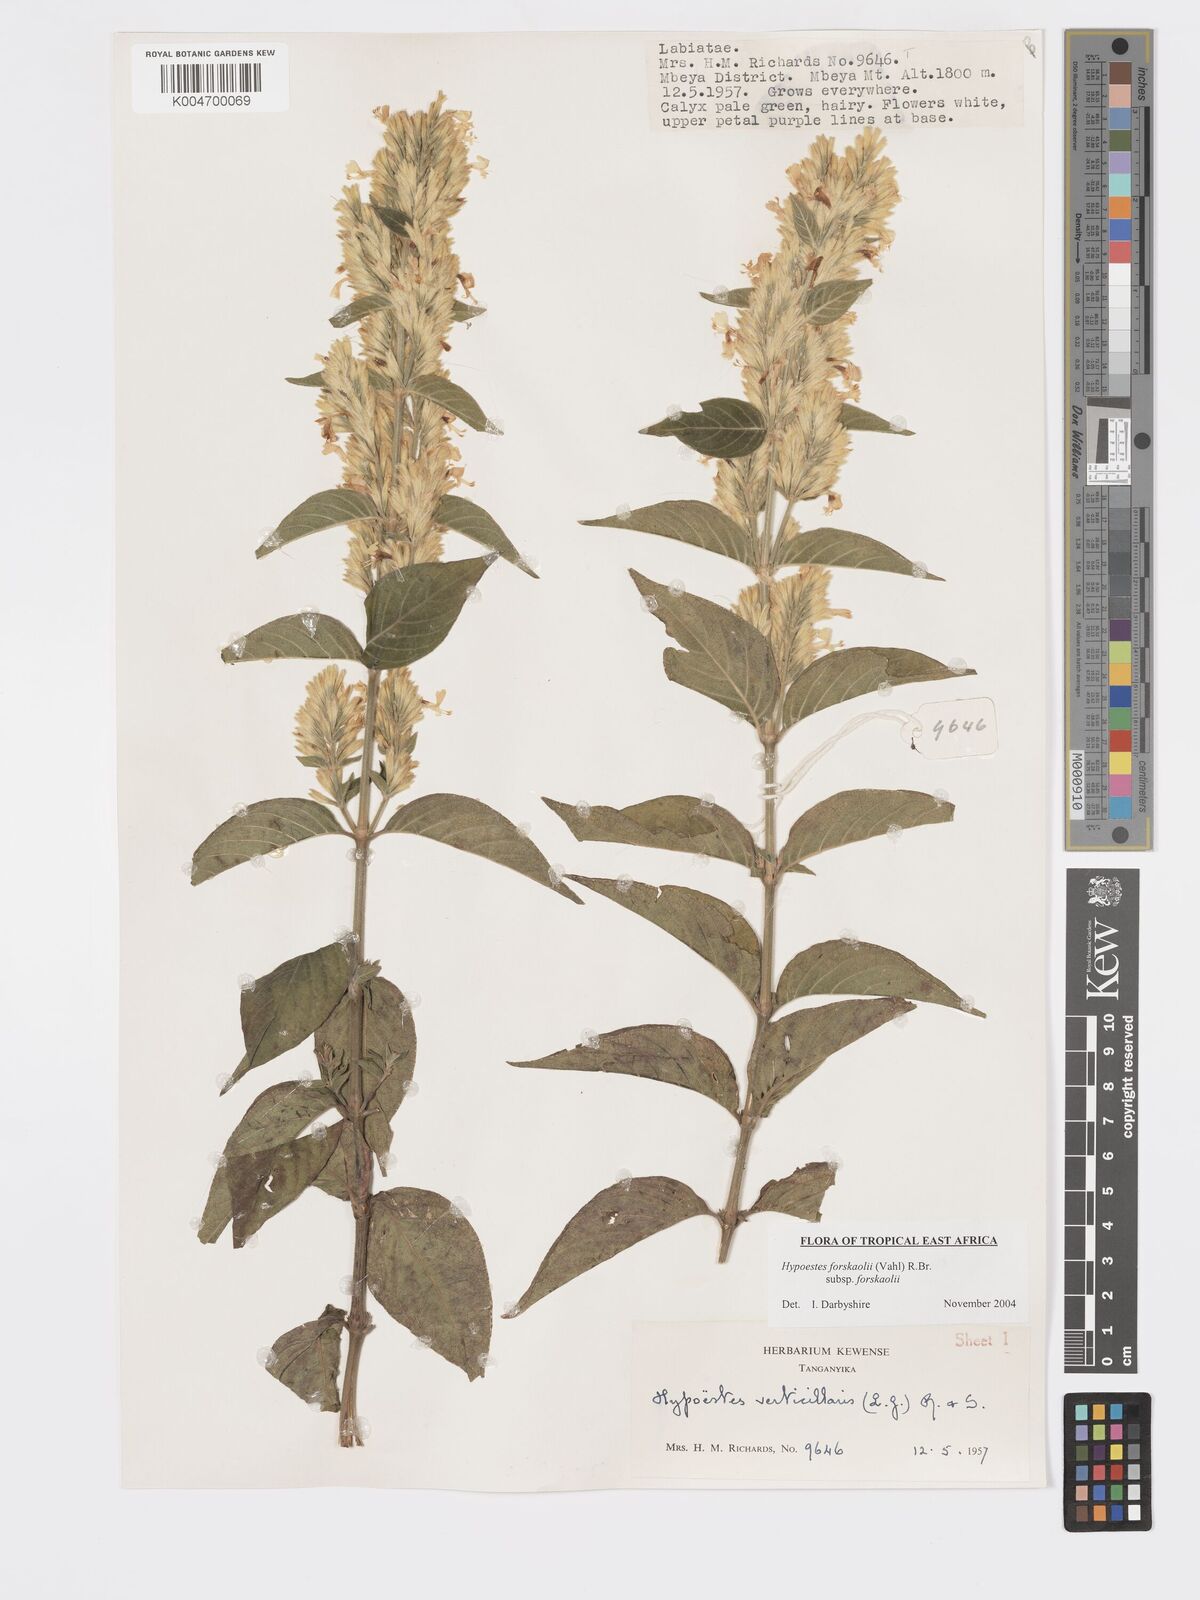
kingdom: Plantae
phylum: Tracheophyta
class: Magnoliopsida
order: Lamiales
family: Acanthaceae
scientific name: Acanthaceae
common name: Acanthaceae
